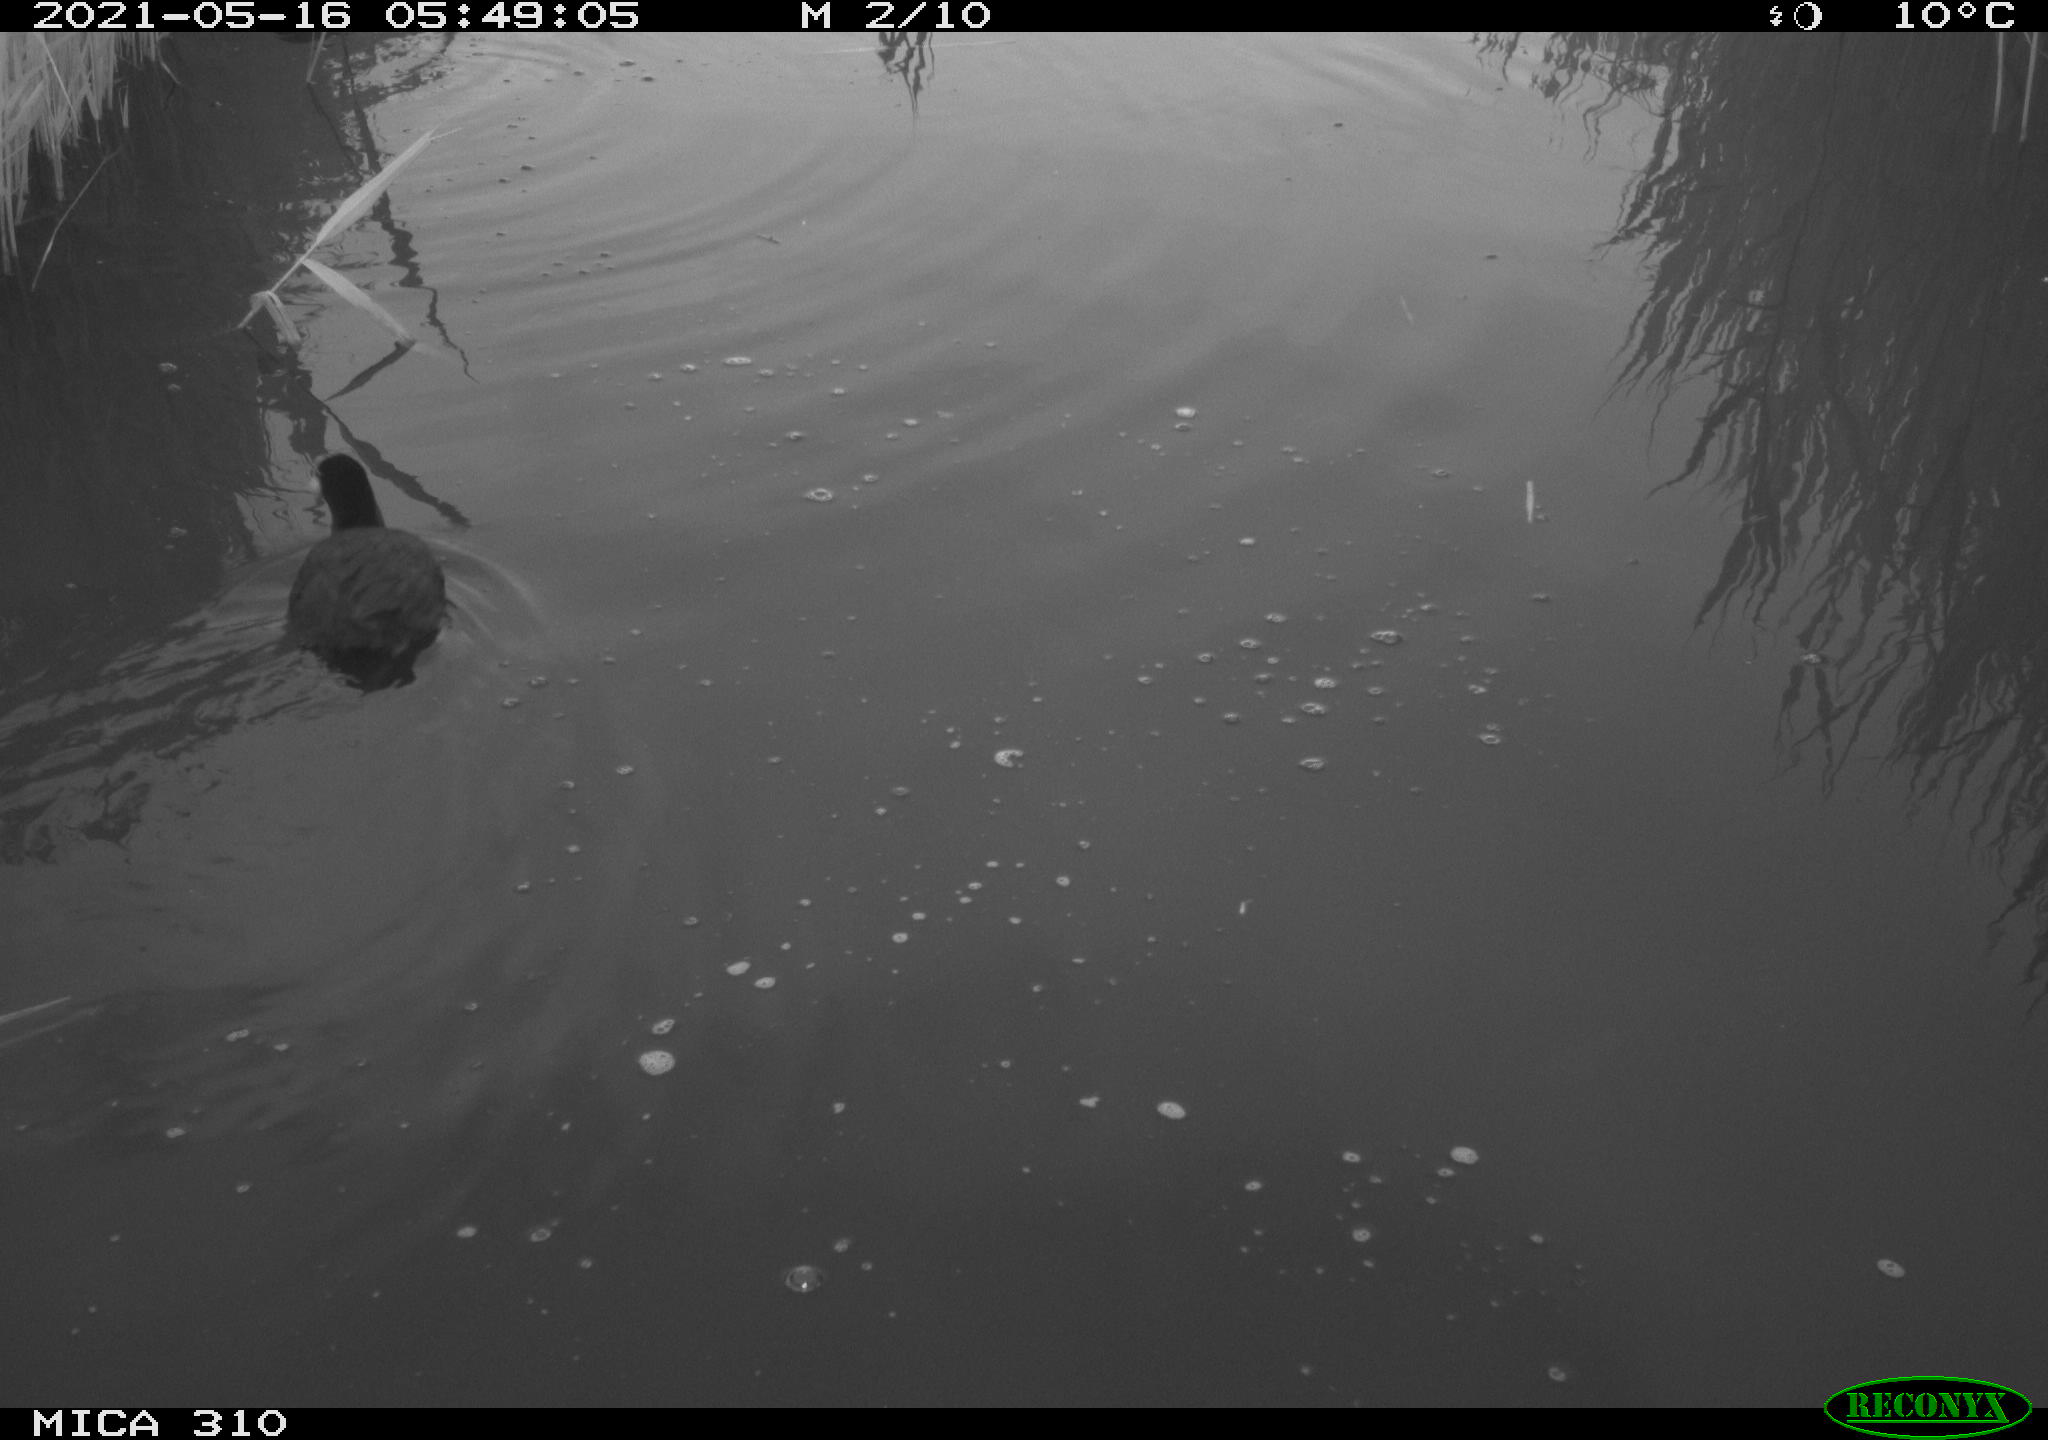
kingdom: Animalia
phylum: Chordata
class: Aves
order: Gruiformes
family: Rallidae
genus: Fulica
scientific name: Fulica atra
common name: Eurasian coot
